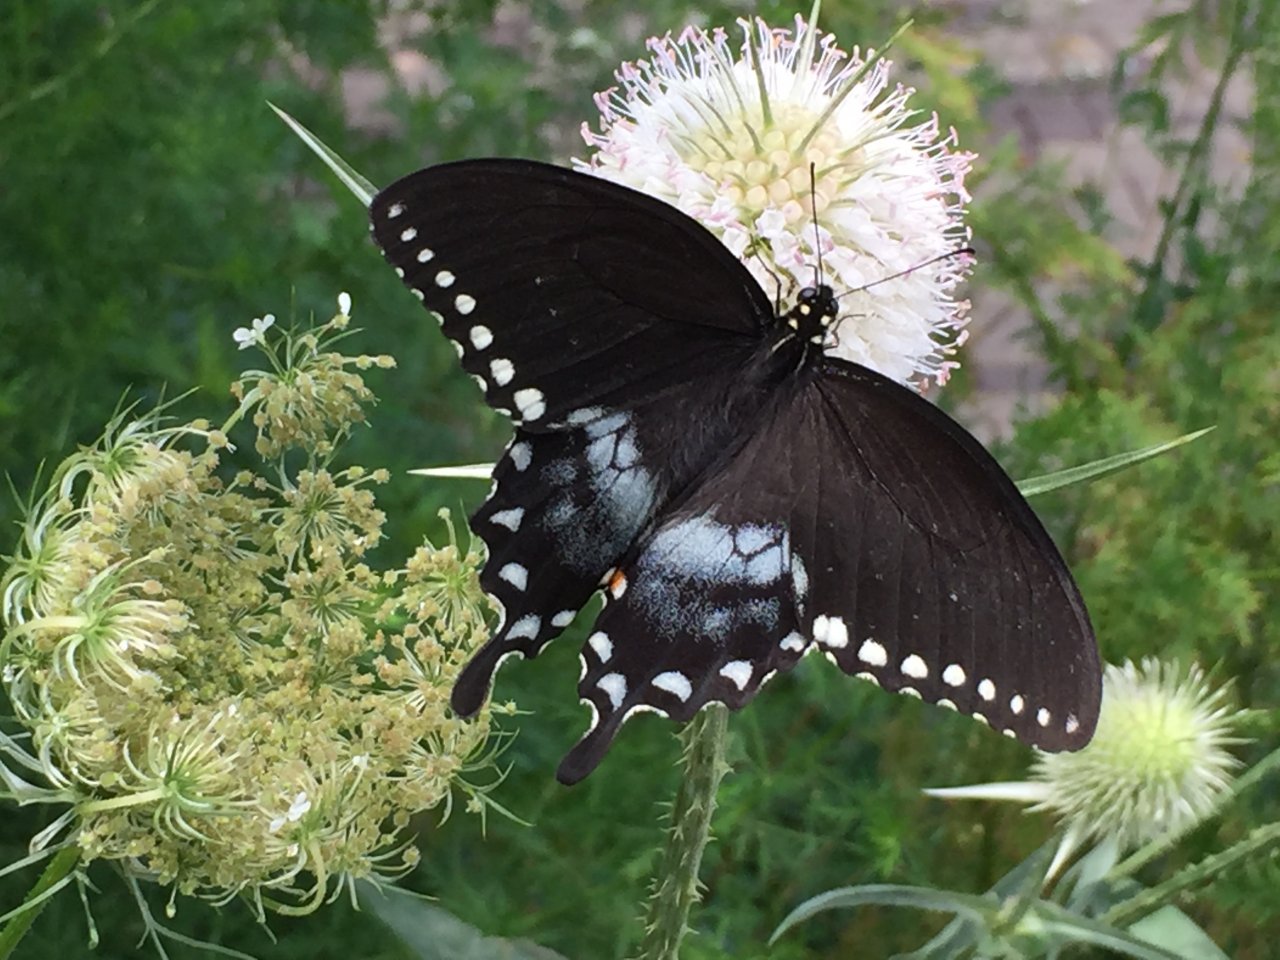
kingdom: Animalia
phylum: Arthropoda
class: Insecta
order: Lepidoptera
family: Papilionidae
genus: Pterourus
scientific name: Pterourus troilus
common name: Spicebush Swallowtail
